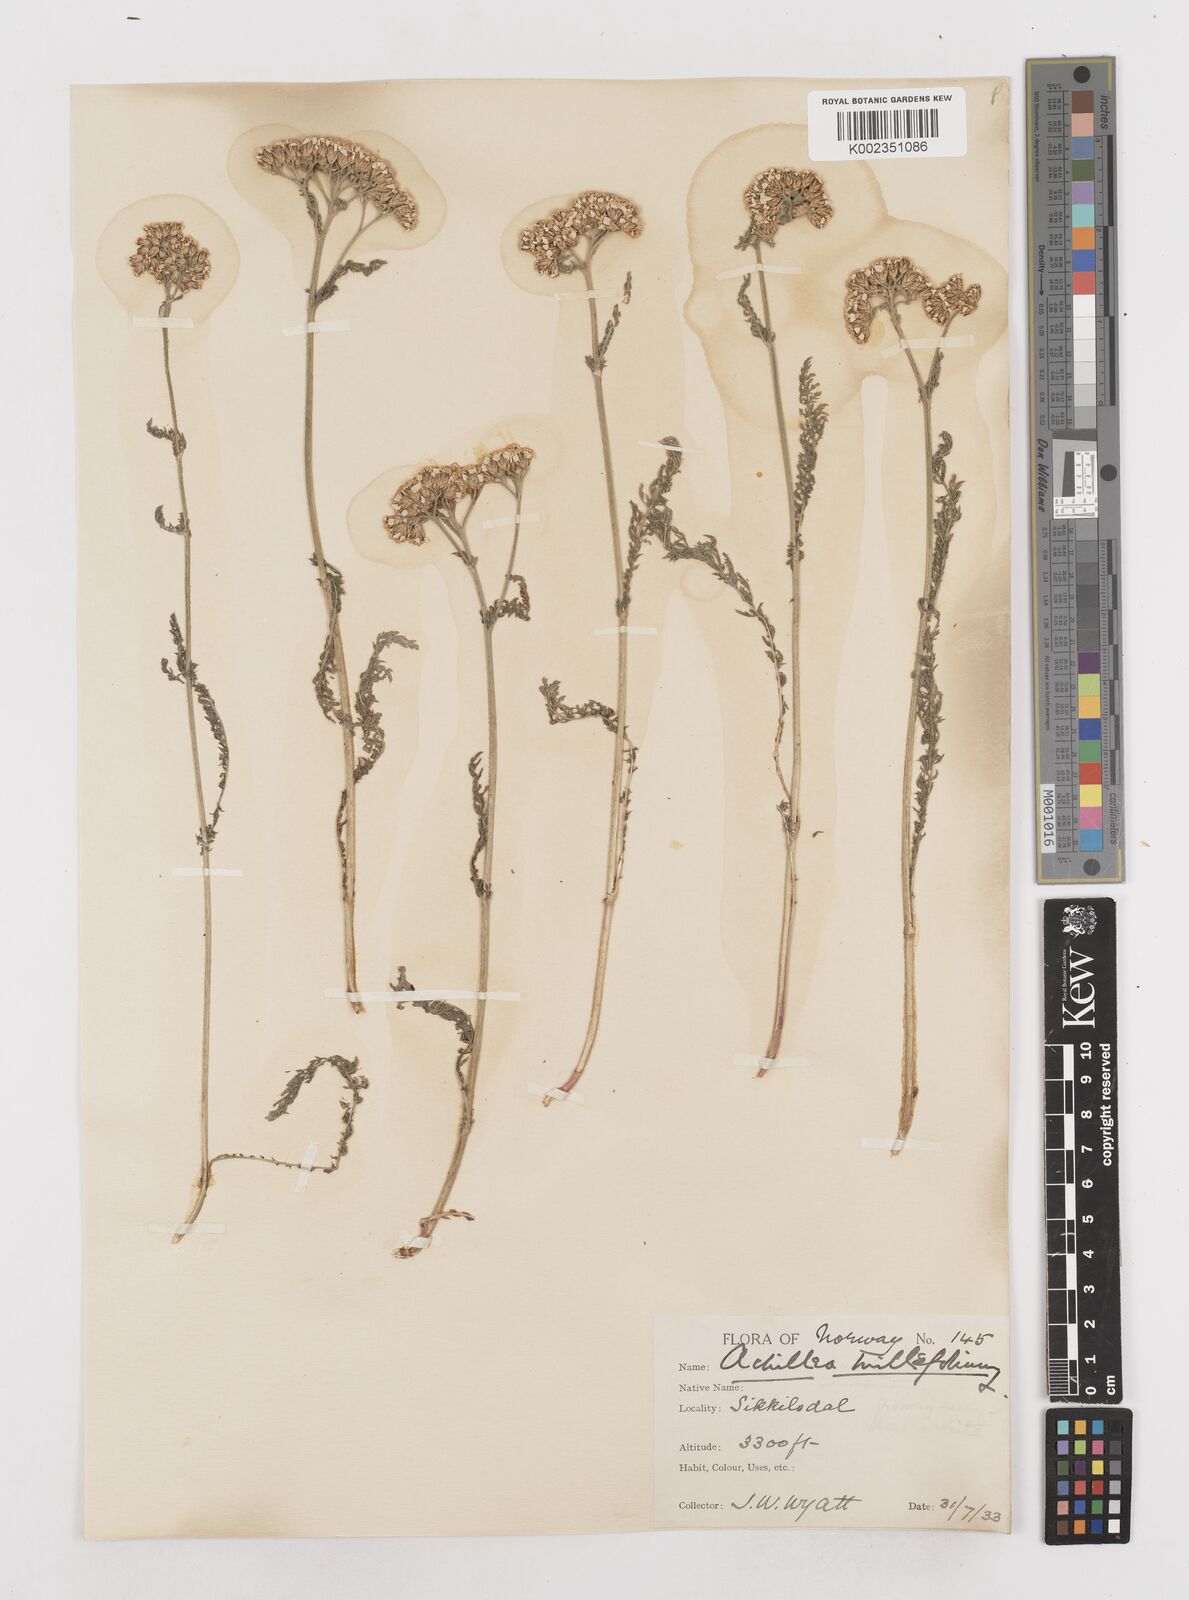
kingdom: Plantae
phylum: Tracheophyta
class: Magnoliopsida
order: Asterales
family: Asteraceae
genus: Achillea
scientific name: Achillea millefolium
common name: Yarrow
